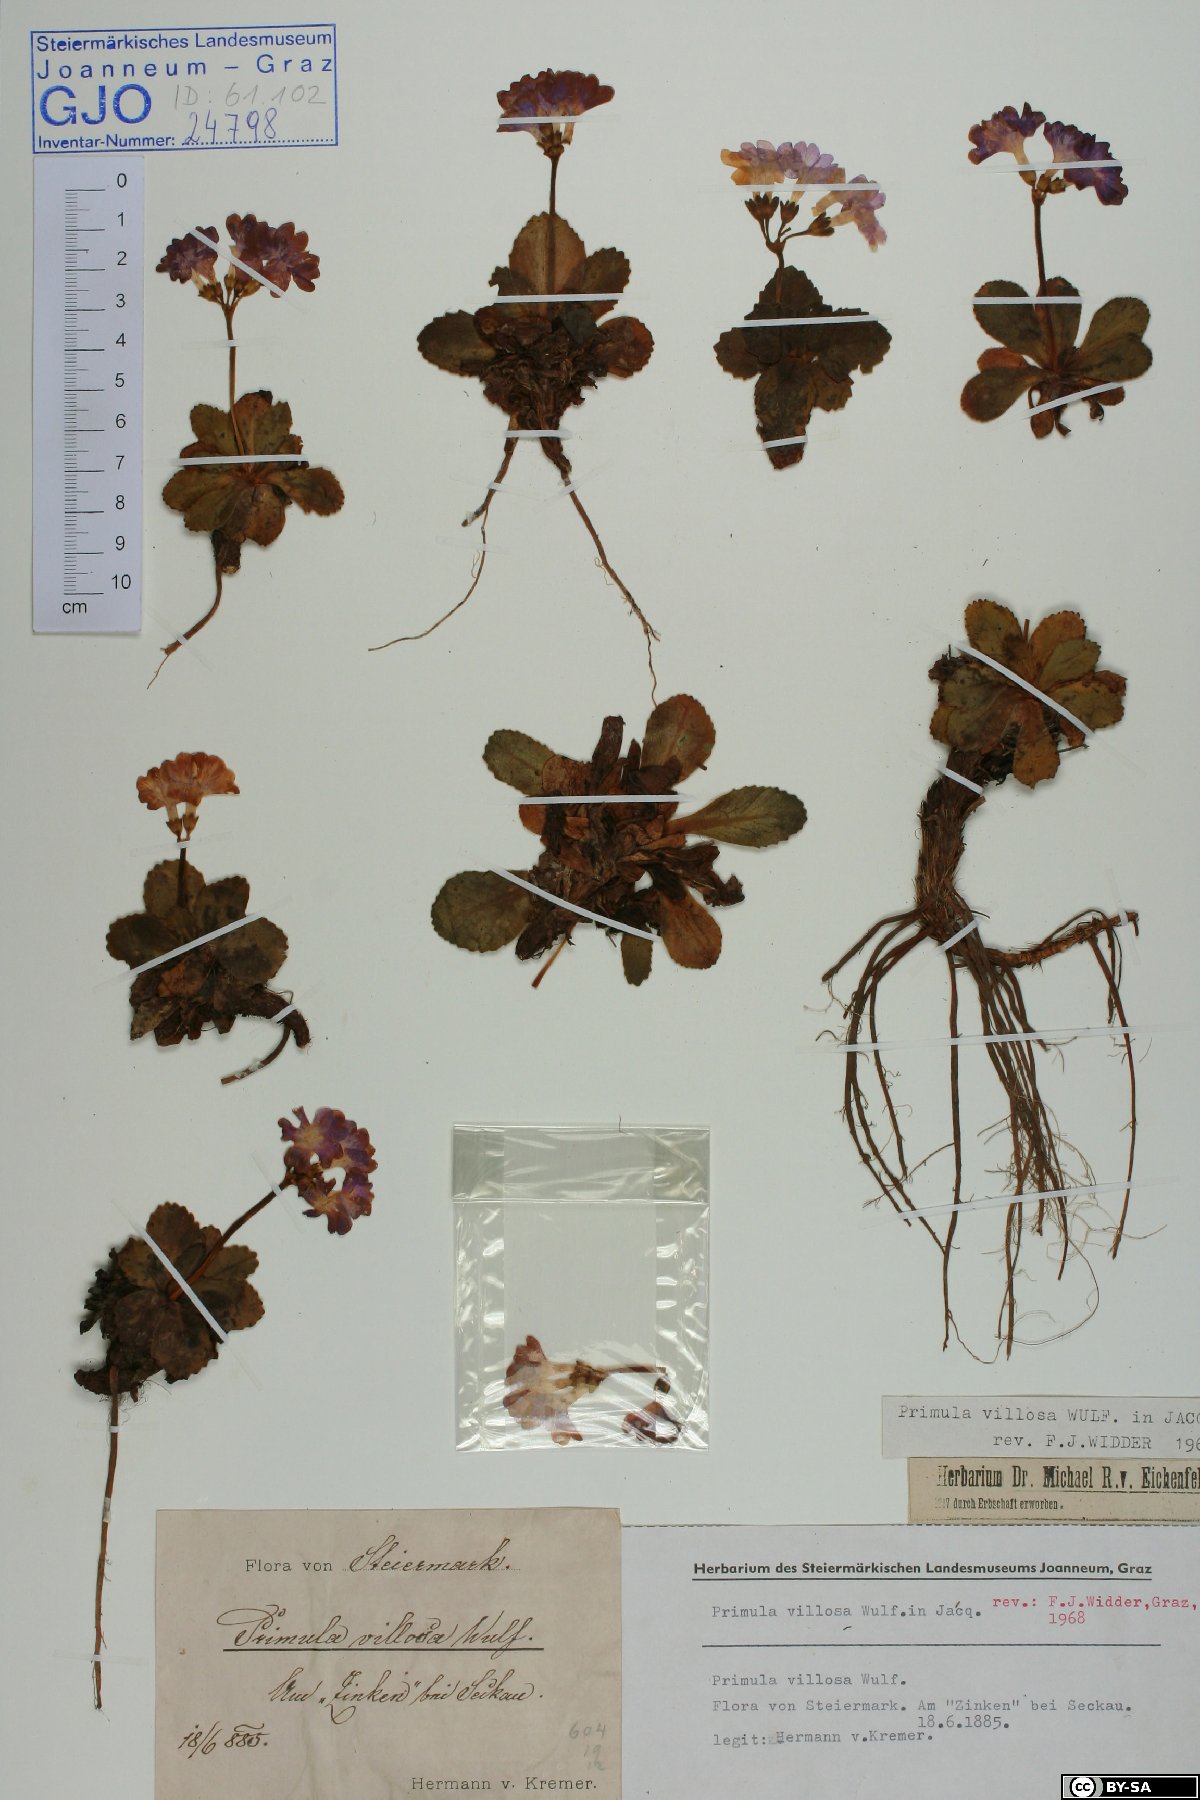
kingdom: Plantae
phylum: Tracheophyta
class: Magnoliopsida
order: Ericales
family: Primulaceae
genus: Primula
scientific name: Primula villosa
